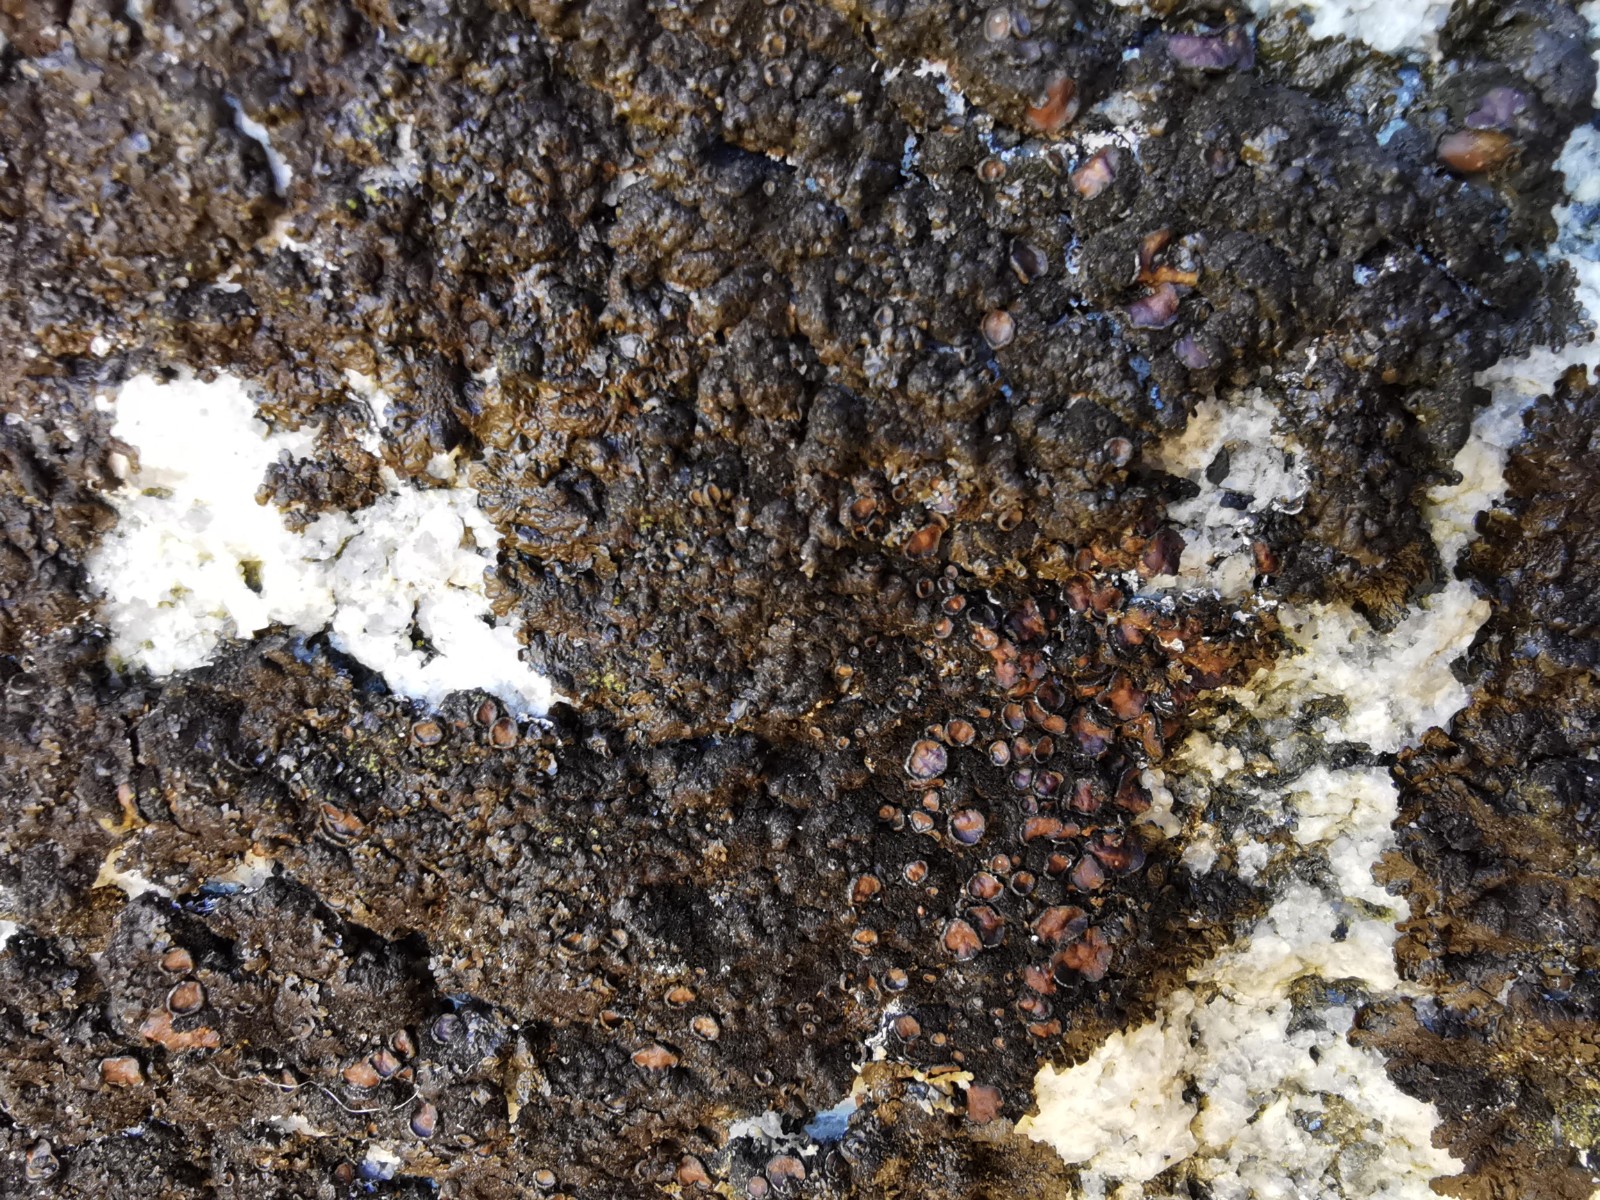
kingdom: Fungi
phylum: Ascomycota
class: Lecanoromycetes
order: Lecanorales
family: Parmeliaceae
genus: Melanelixia
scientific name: Melanelixia fuliginosa
